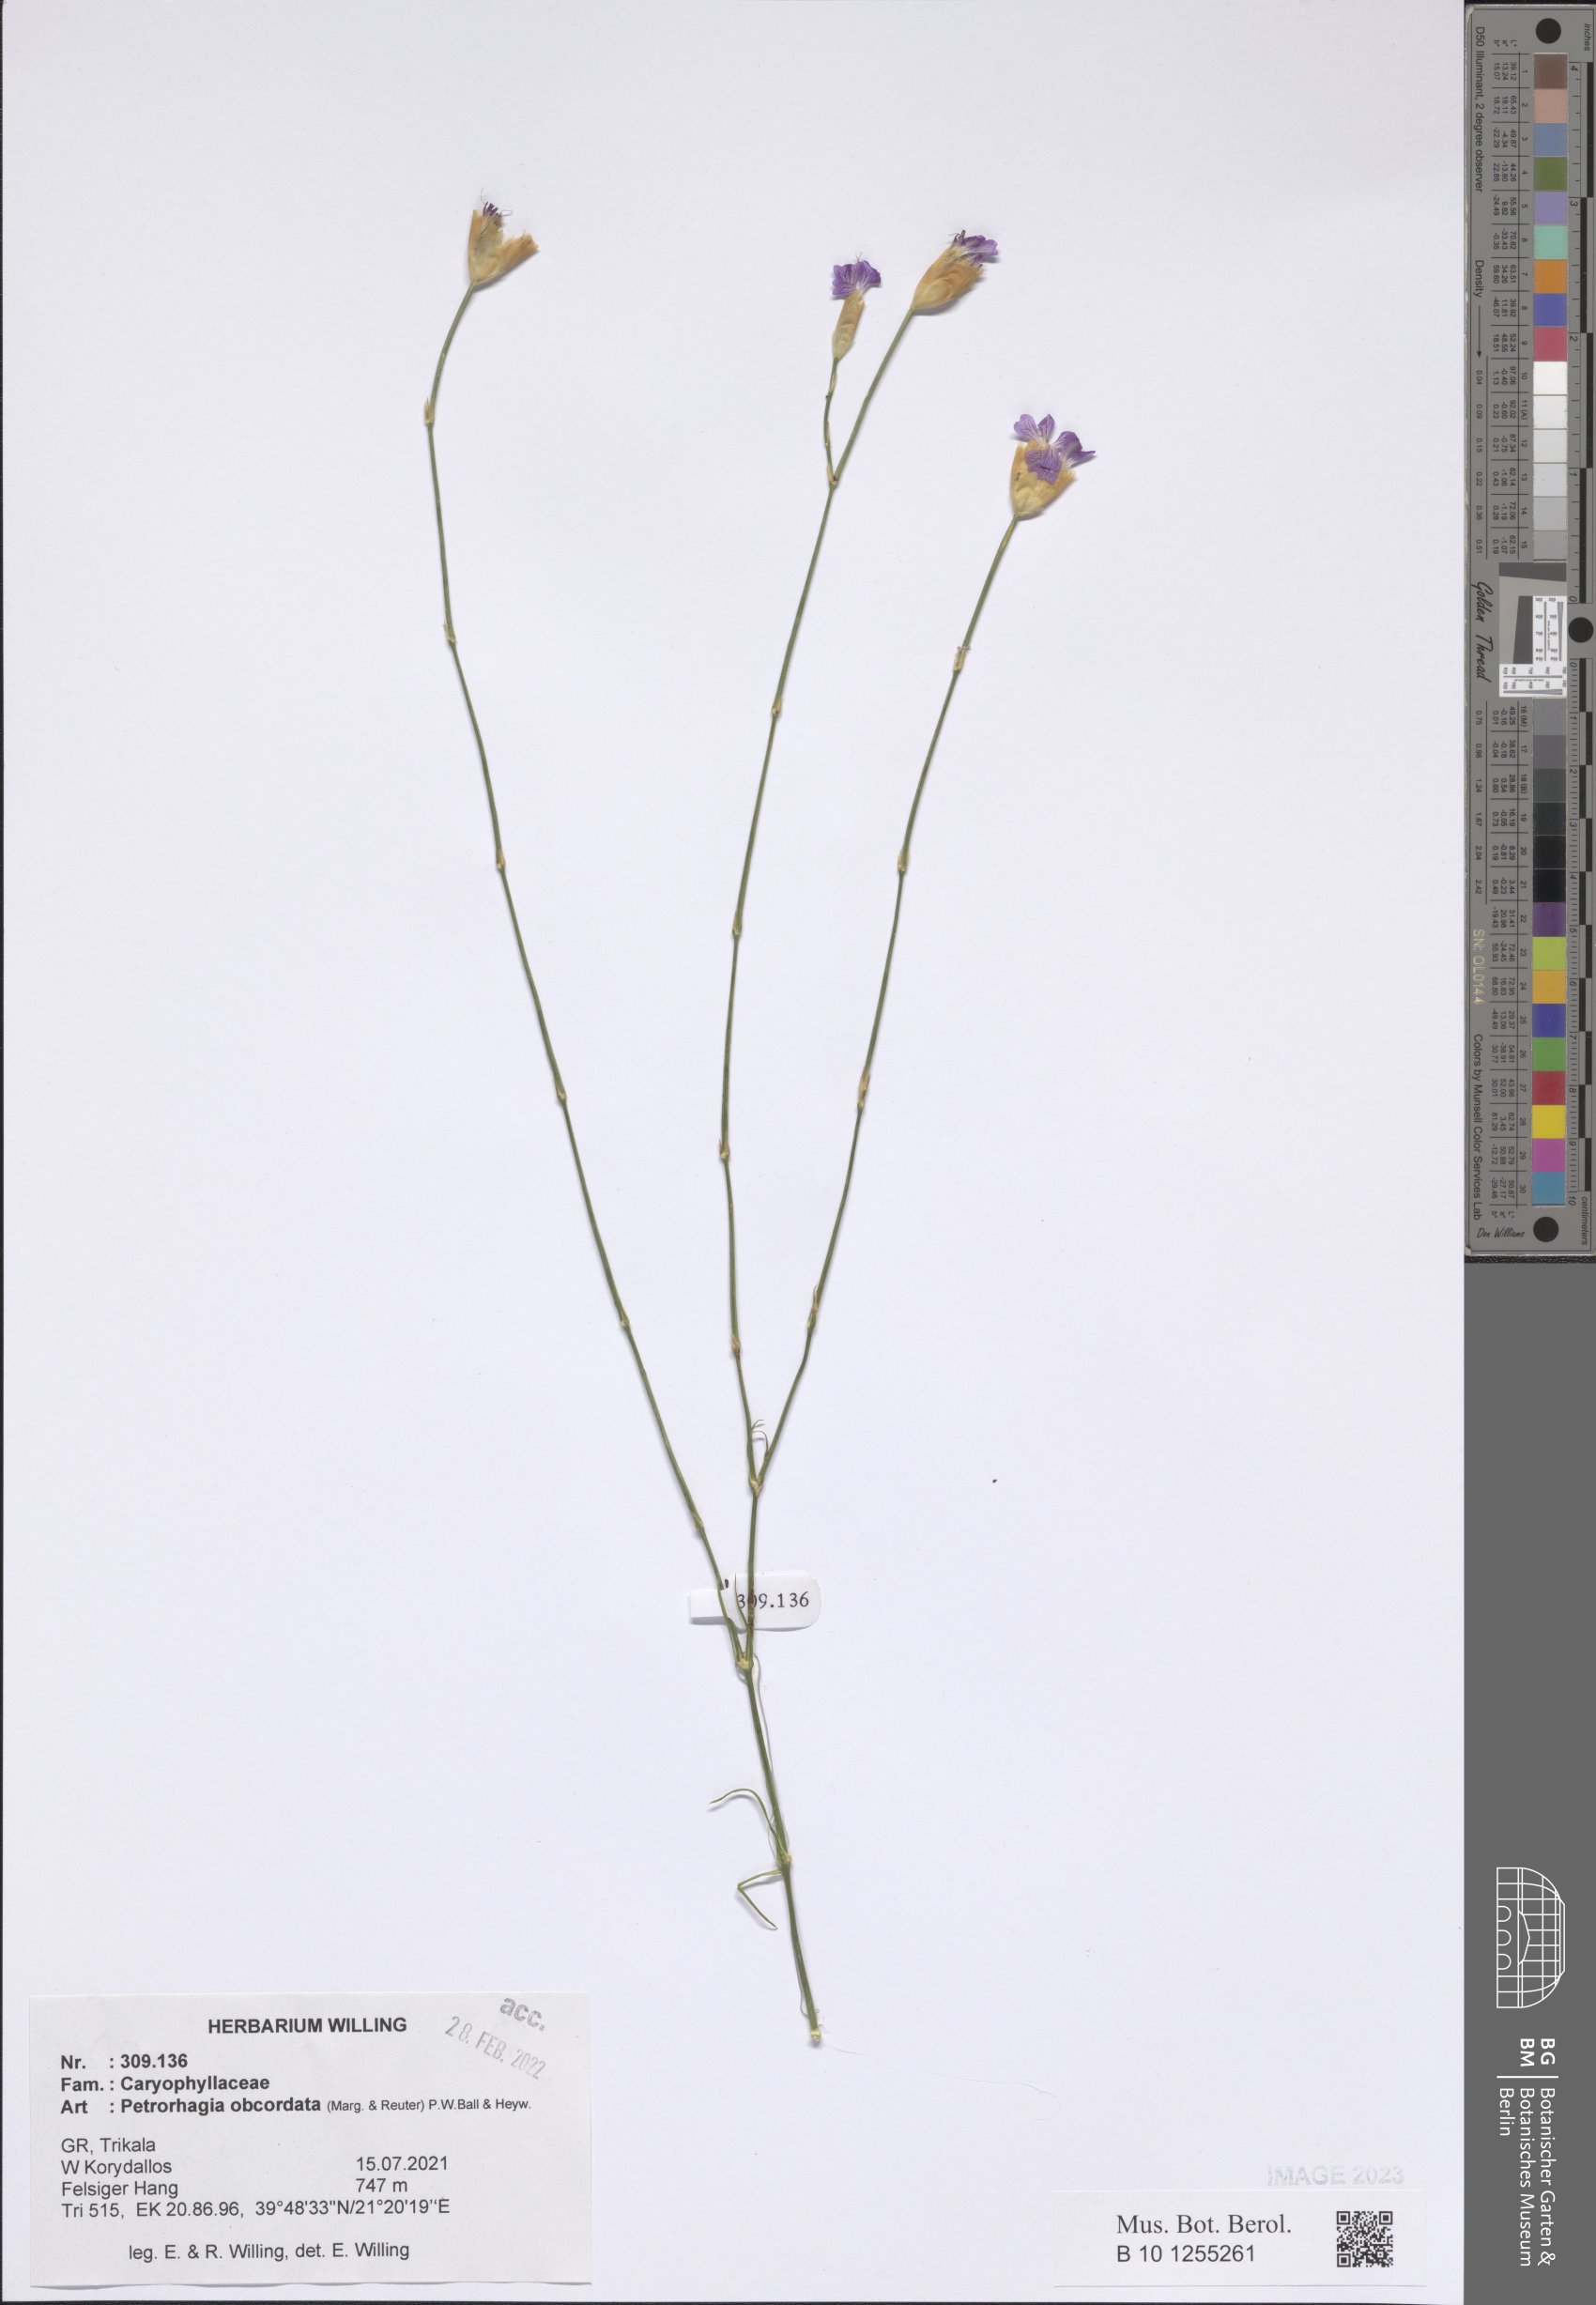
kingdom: Plantae
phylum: Tracheophyta
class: Magnoliopsida
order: Caryophyllales
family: Caryophyllaceae
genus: Petrorhagia
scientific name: Petrorhagia obcordata
